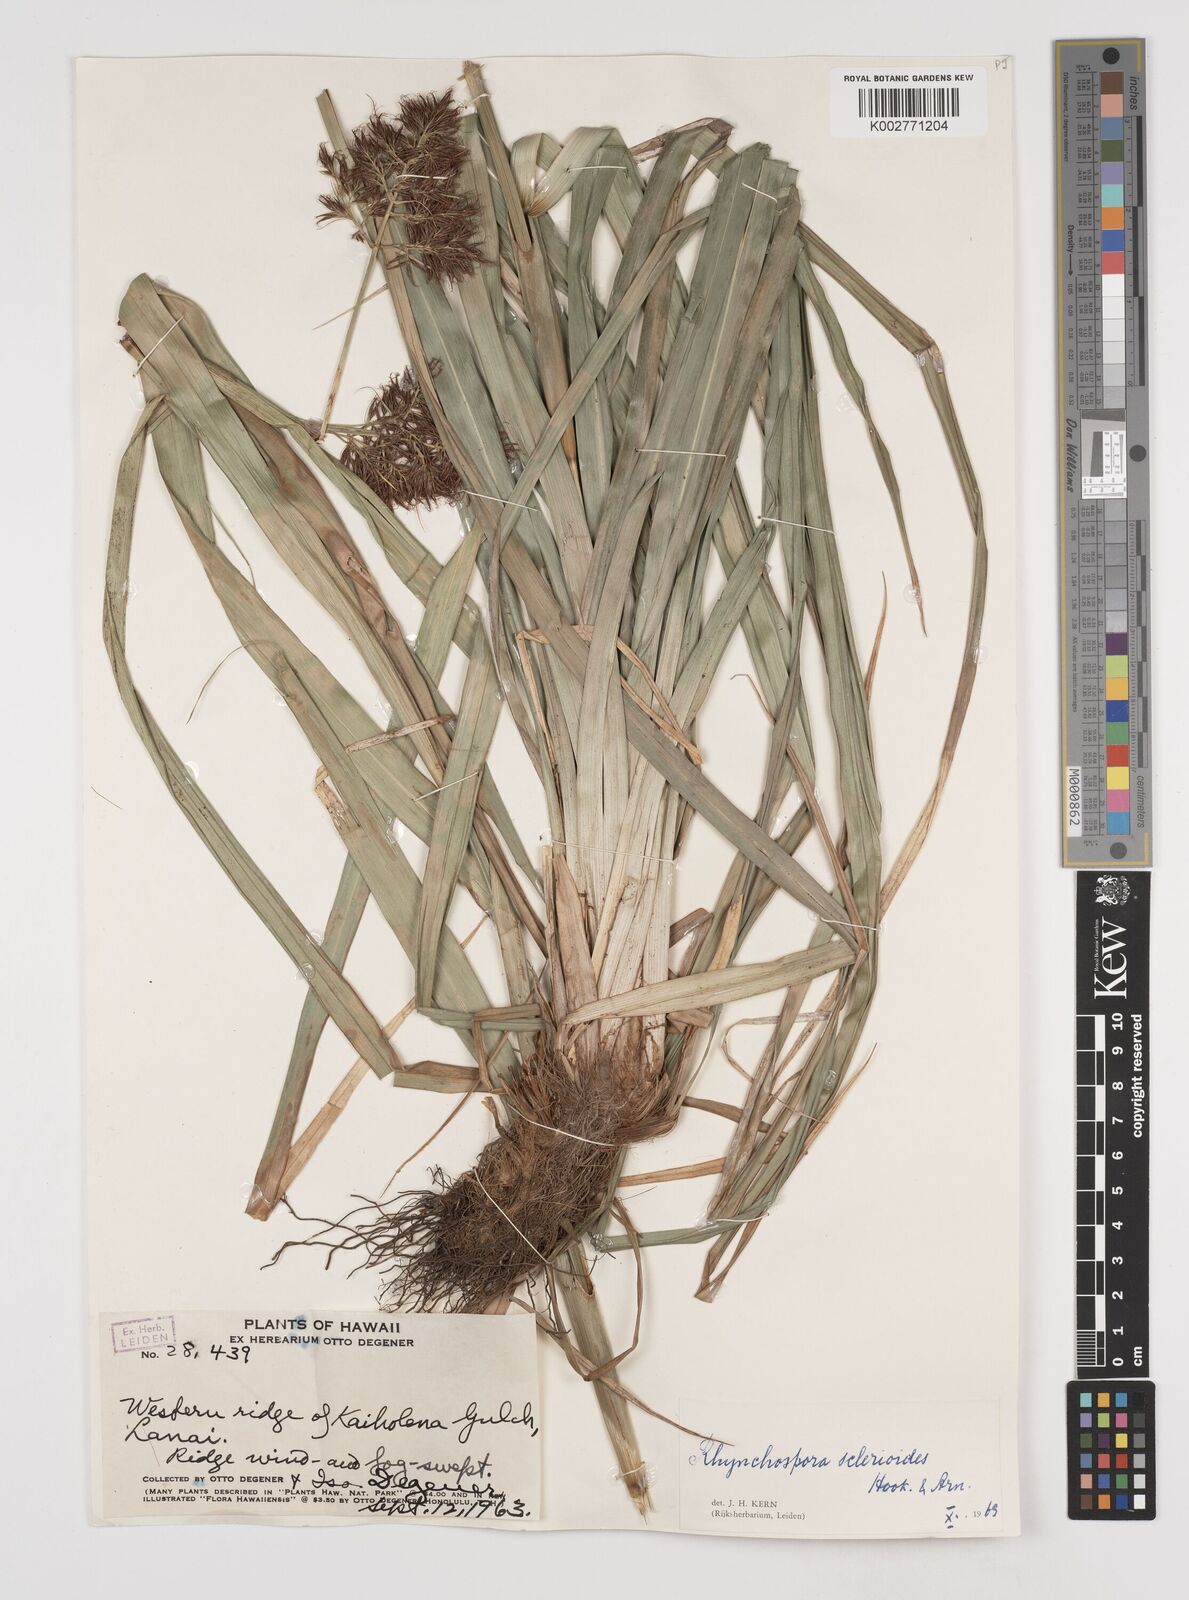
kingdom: Plantae
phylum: Tracheophyta
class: Liliopsida
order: Poales
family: Cyperaceae
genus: Rhynchospora
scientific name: Rhynchospora sclerioides
